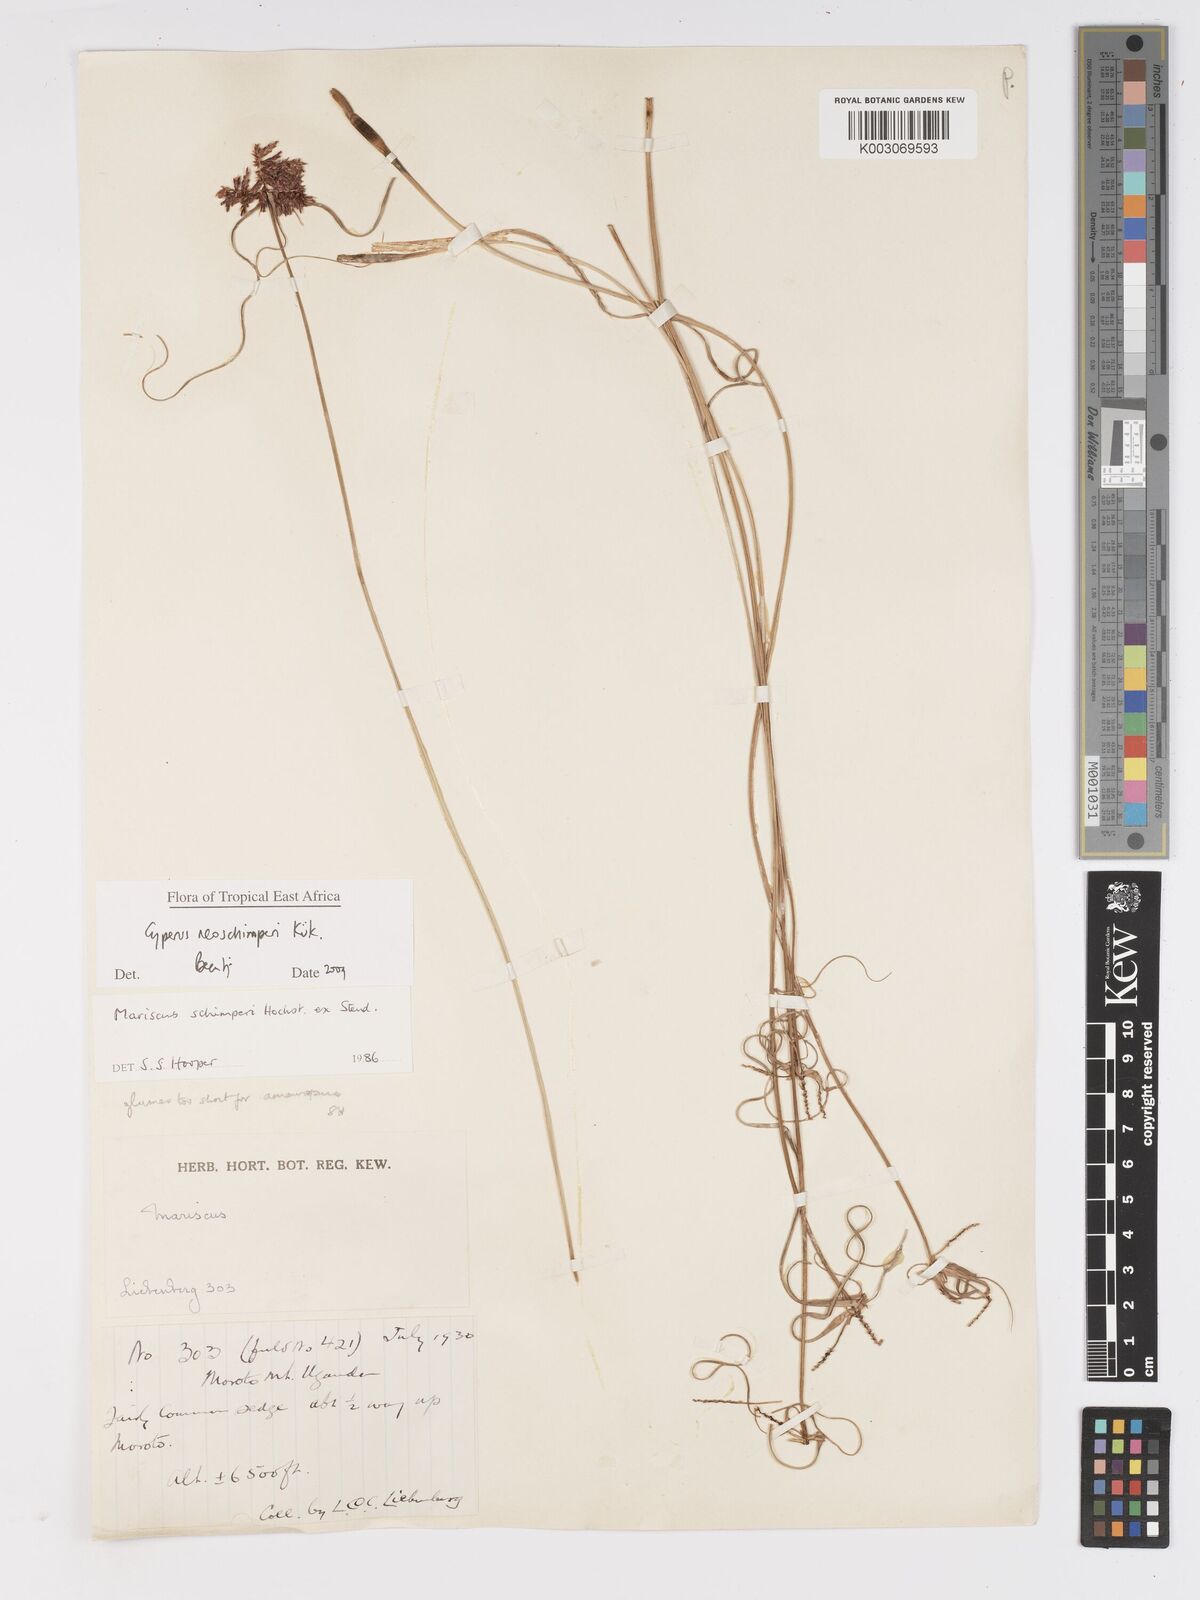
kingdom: Plantae
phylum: Tracheophyta
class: Liliopsida
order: Poales
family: Cyperaceae
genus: Cyperus
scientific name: Cyperus cruentus
